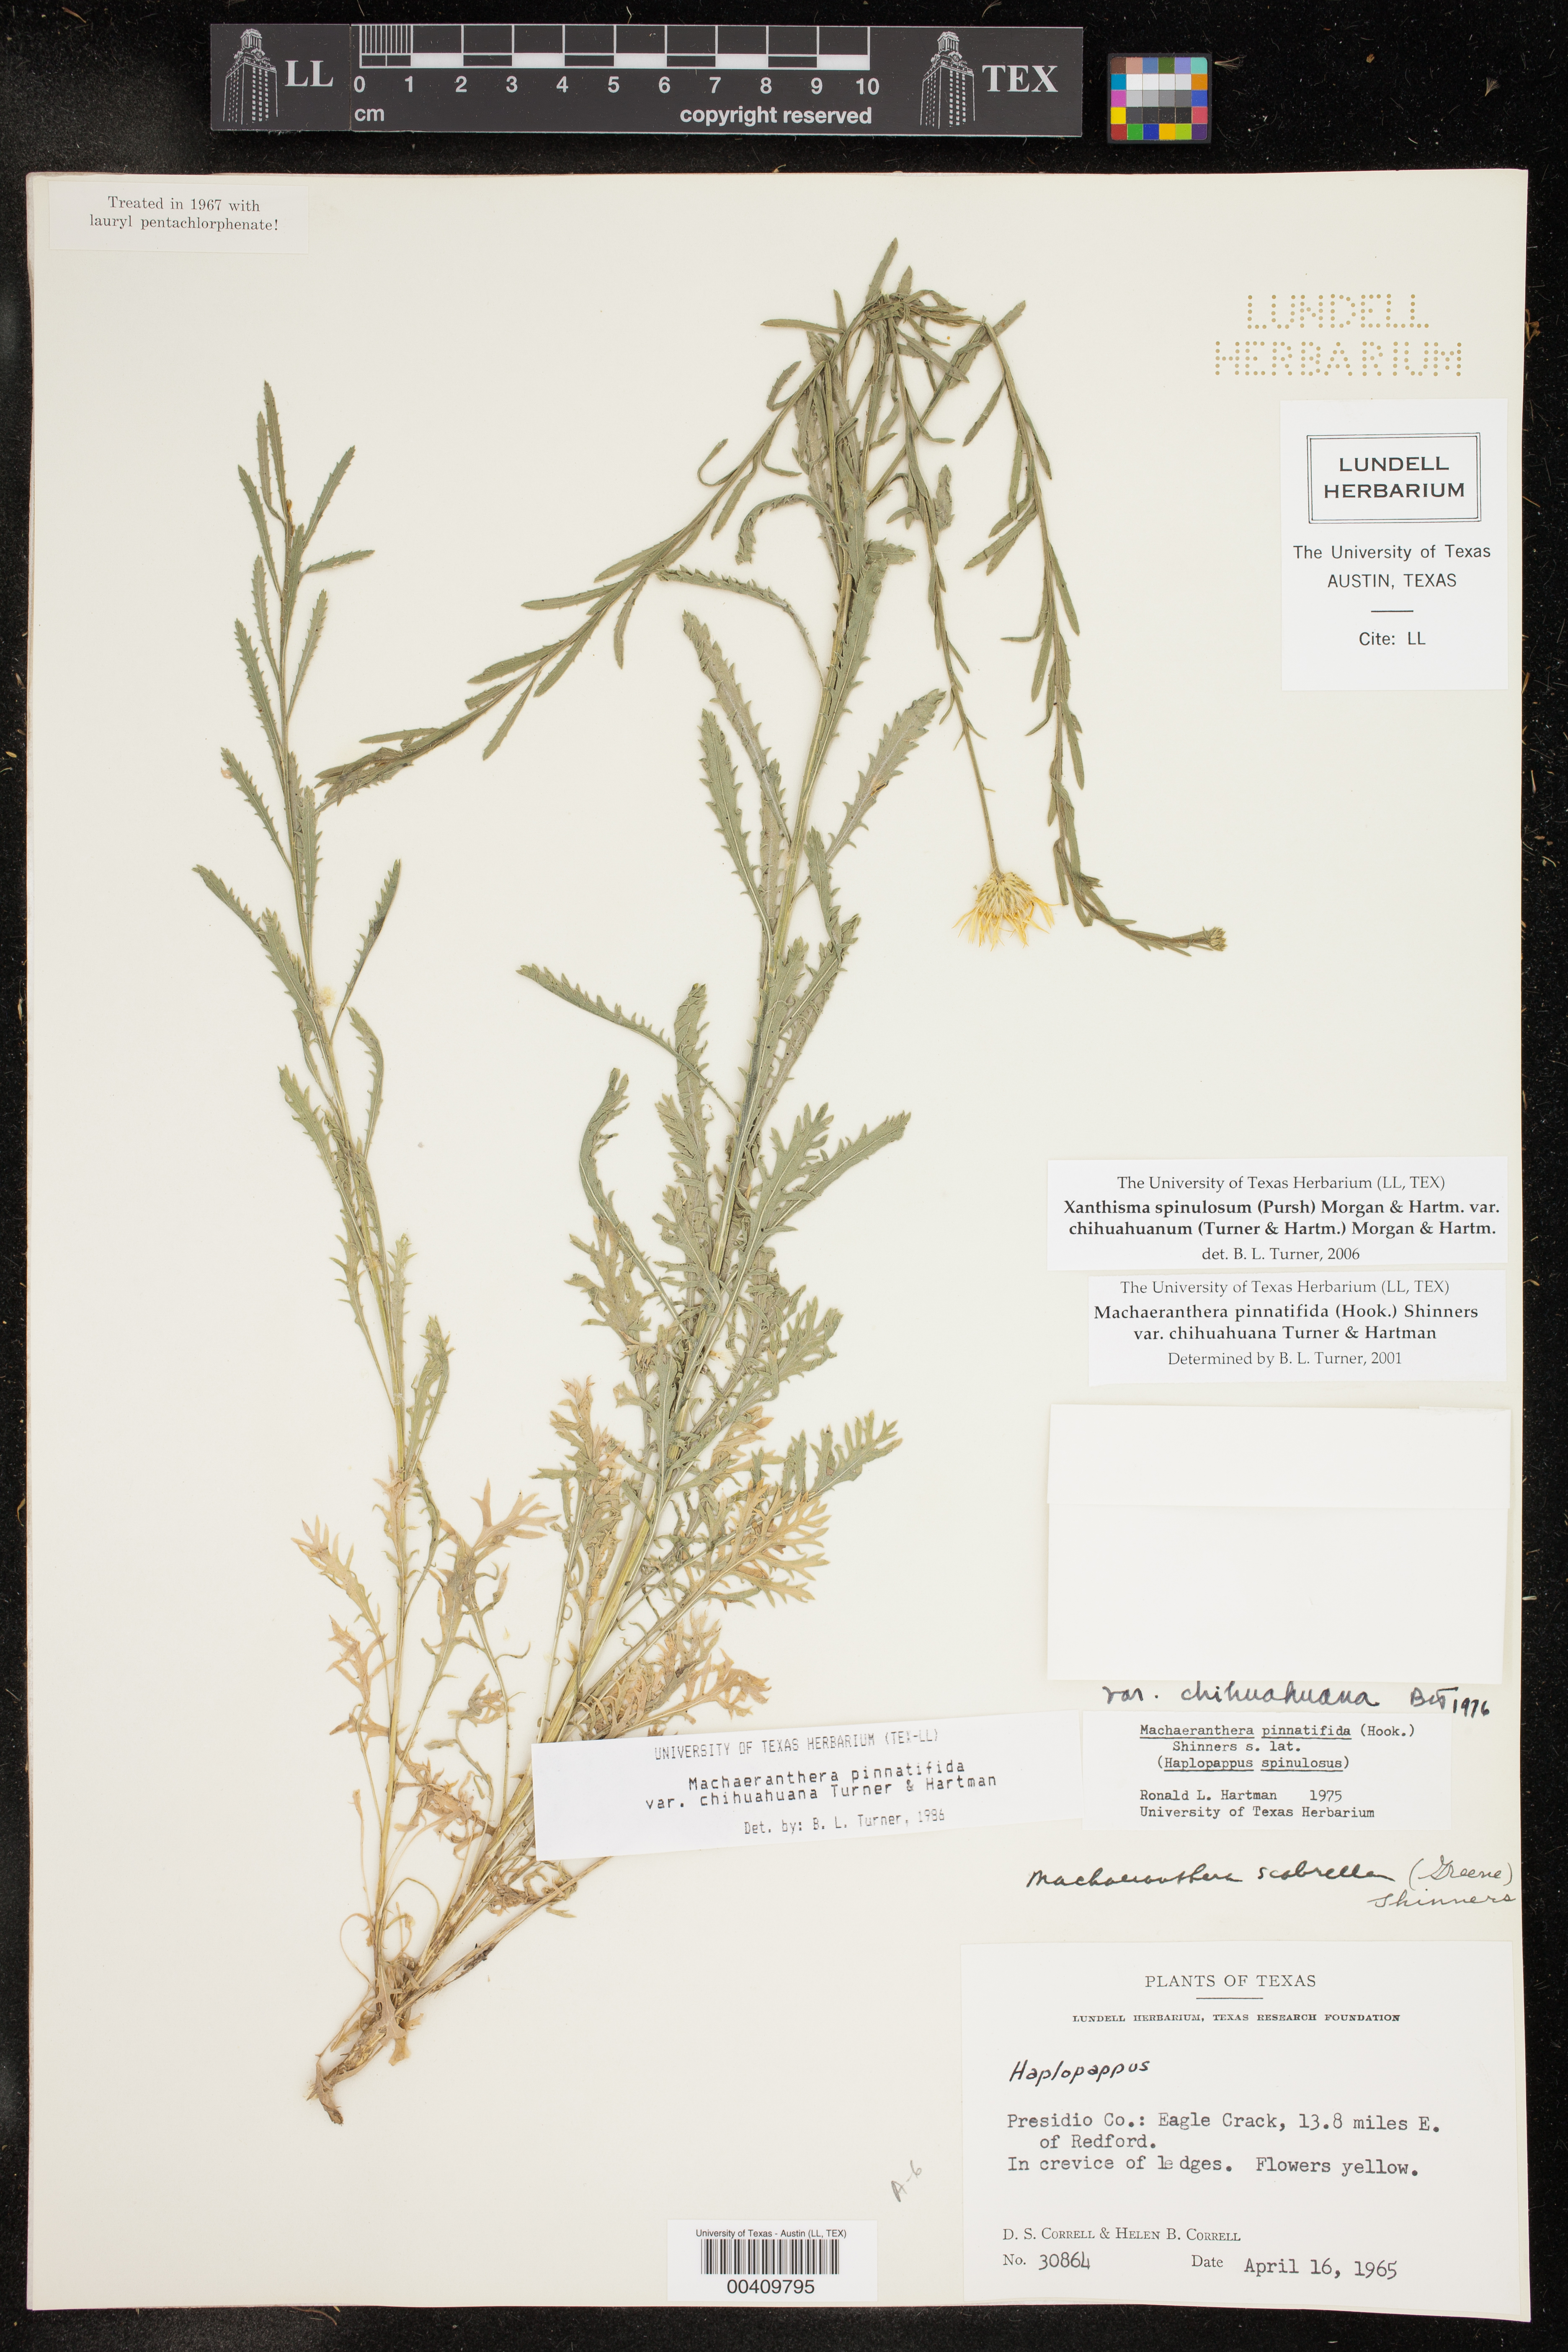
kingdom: Plantae
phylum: Tracheophyta
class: Magnoliopsida
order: Asterales
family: Asteraceae
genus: Xanthisma
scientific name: Xanthisma spinulosum
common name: Spiny goldenweed
